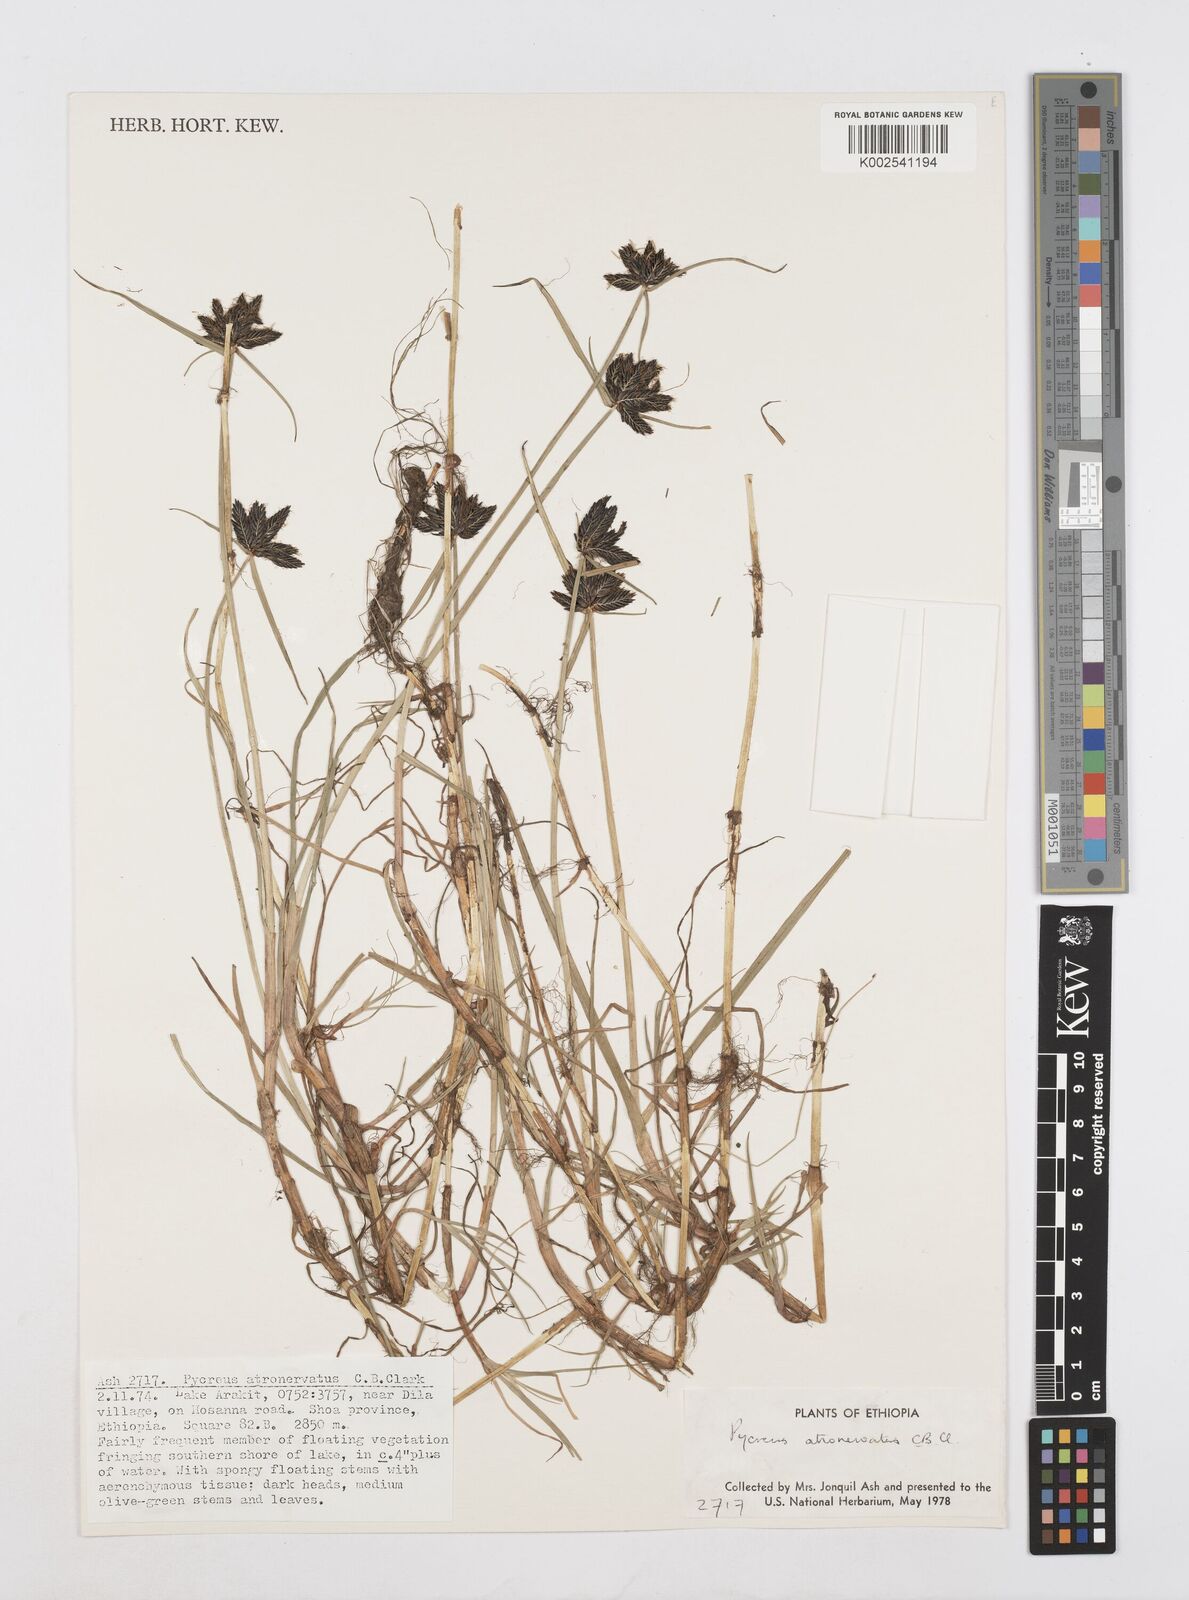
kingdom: Plantae
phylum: Tracheophyta
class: Liliopsida
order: Poales
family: Cyperaceae
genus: Cyperus
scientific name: Cyperus atronervatus
